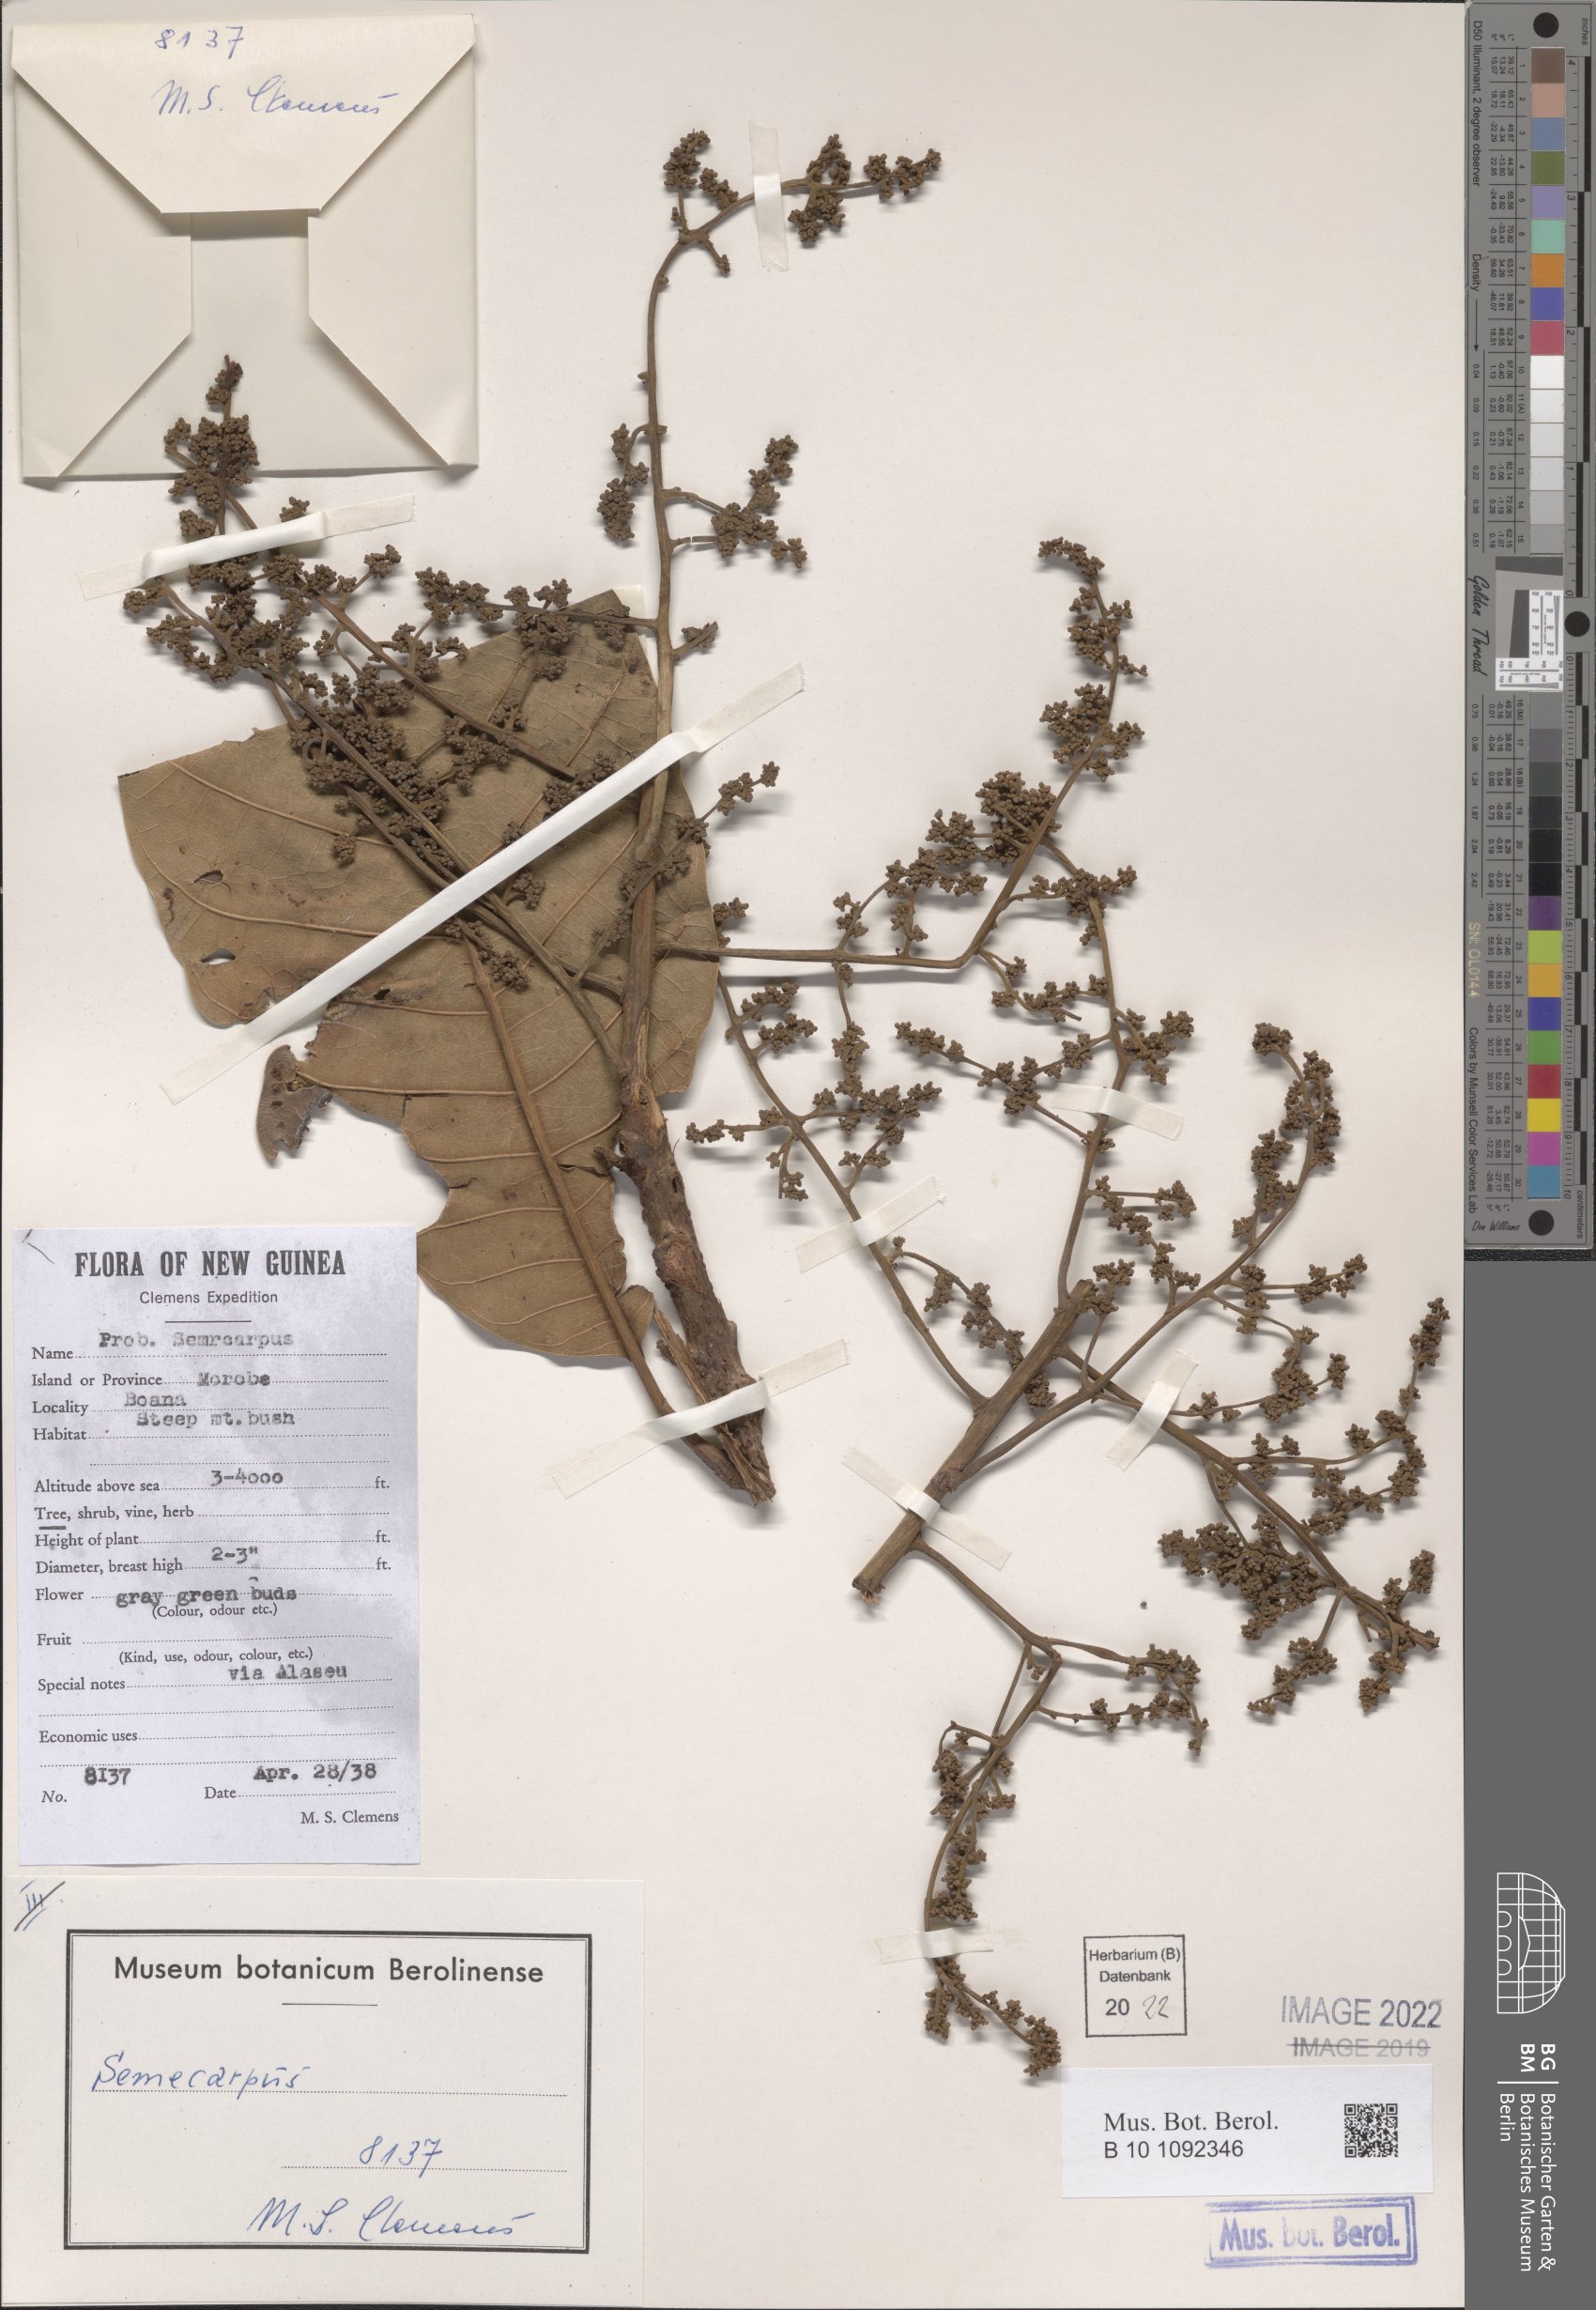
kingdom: Plantae
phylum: Tracheophyta
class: Magnoliopsida
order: Sapindales
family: Anacardiaceae
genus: Semecarpus
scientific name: Semecarpus
